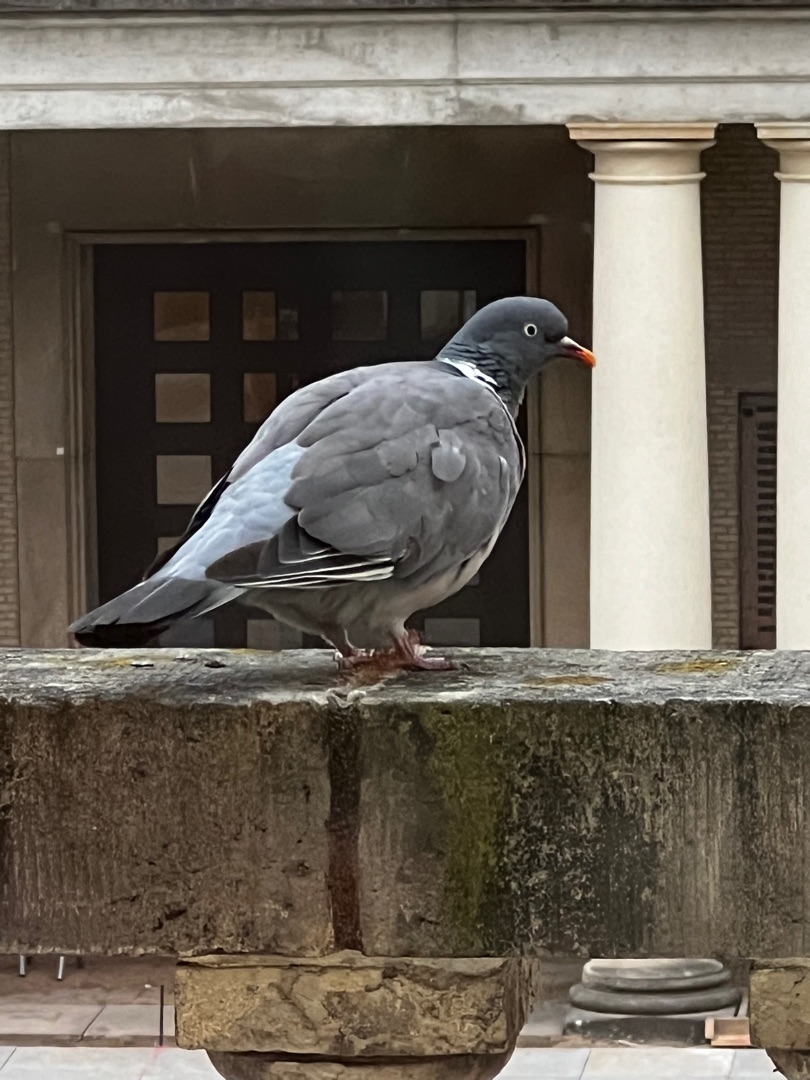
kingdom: Animalia
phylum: Chordata
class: Aves
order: Columbiformes
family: Columbidae
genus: Columba
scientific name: Columba palumbus
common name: Ringdue
